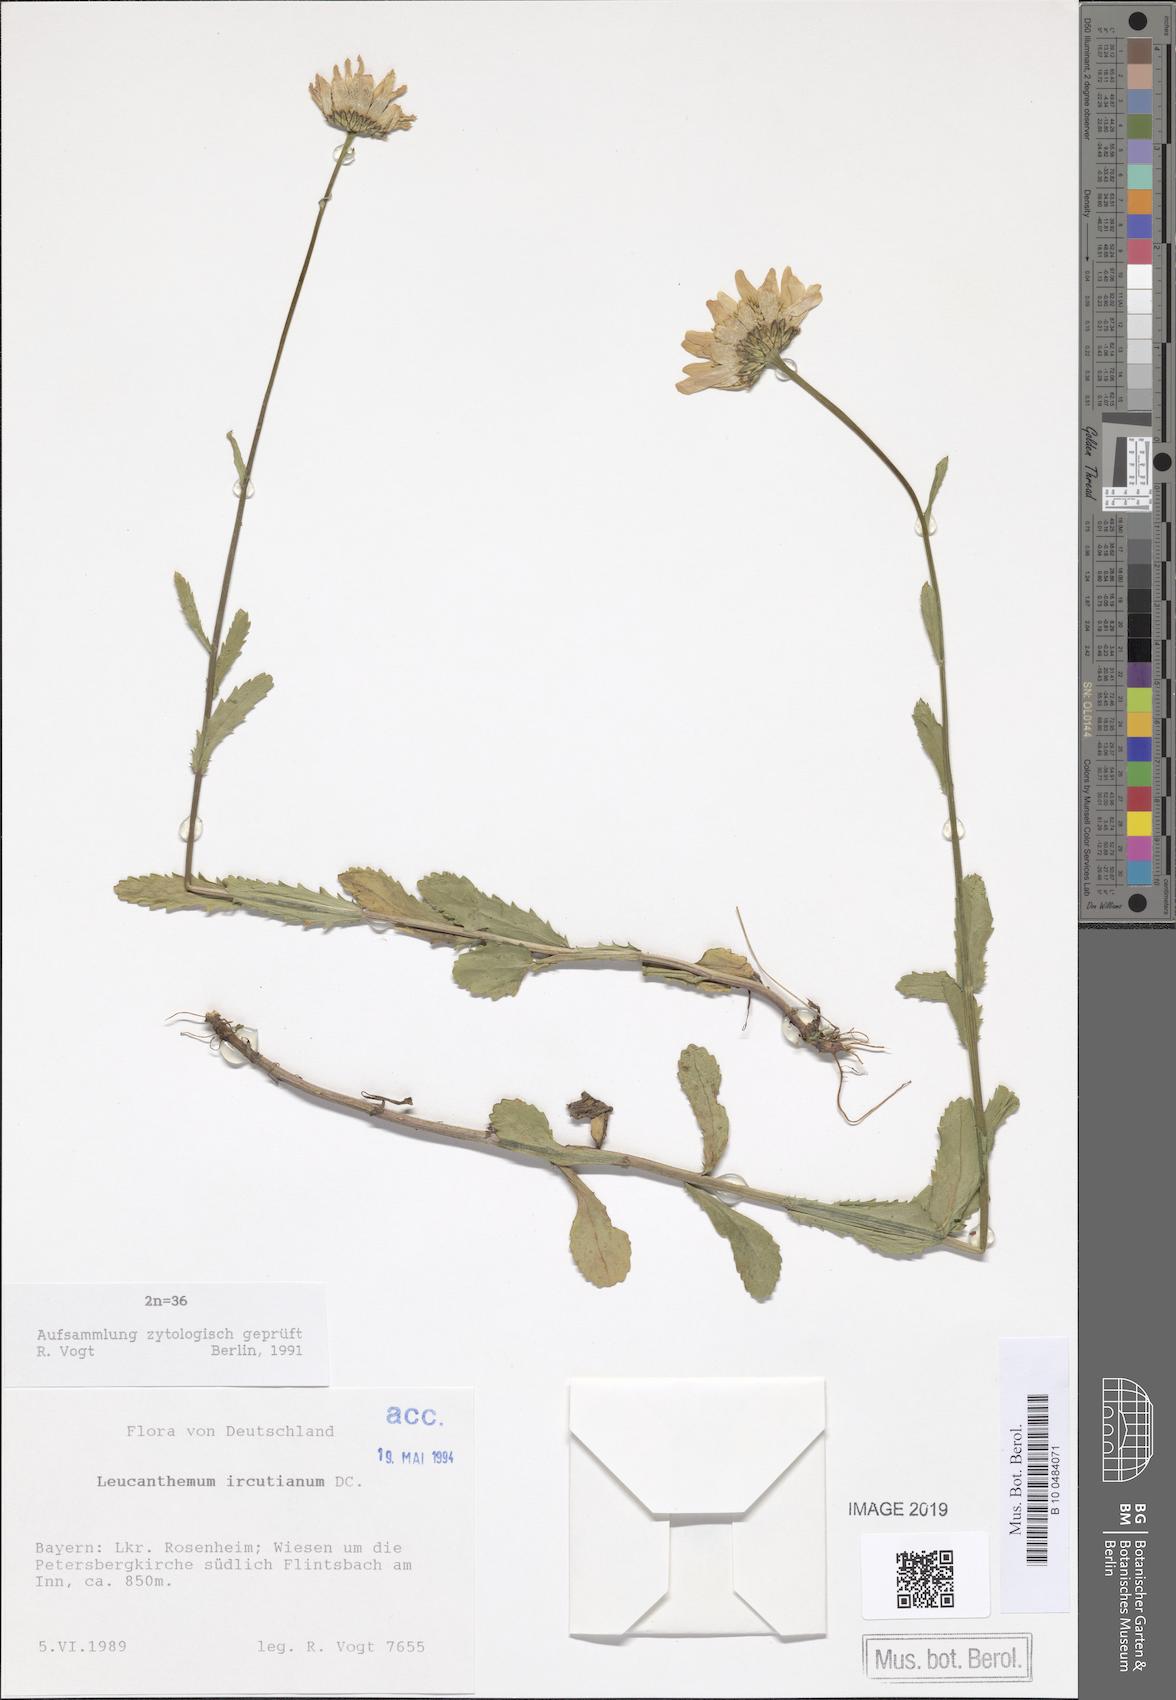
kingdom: Plantae
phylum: Tracheophyta
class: Magnoliopsida
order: Asterales
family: Asteraceae
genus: Leucanthemum
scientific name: Leucanthemum ircutianum
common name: Daisy
